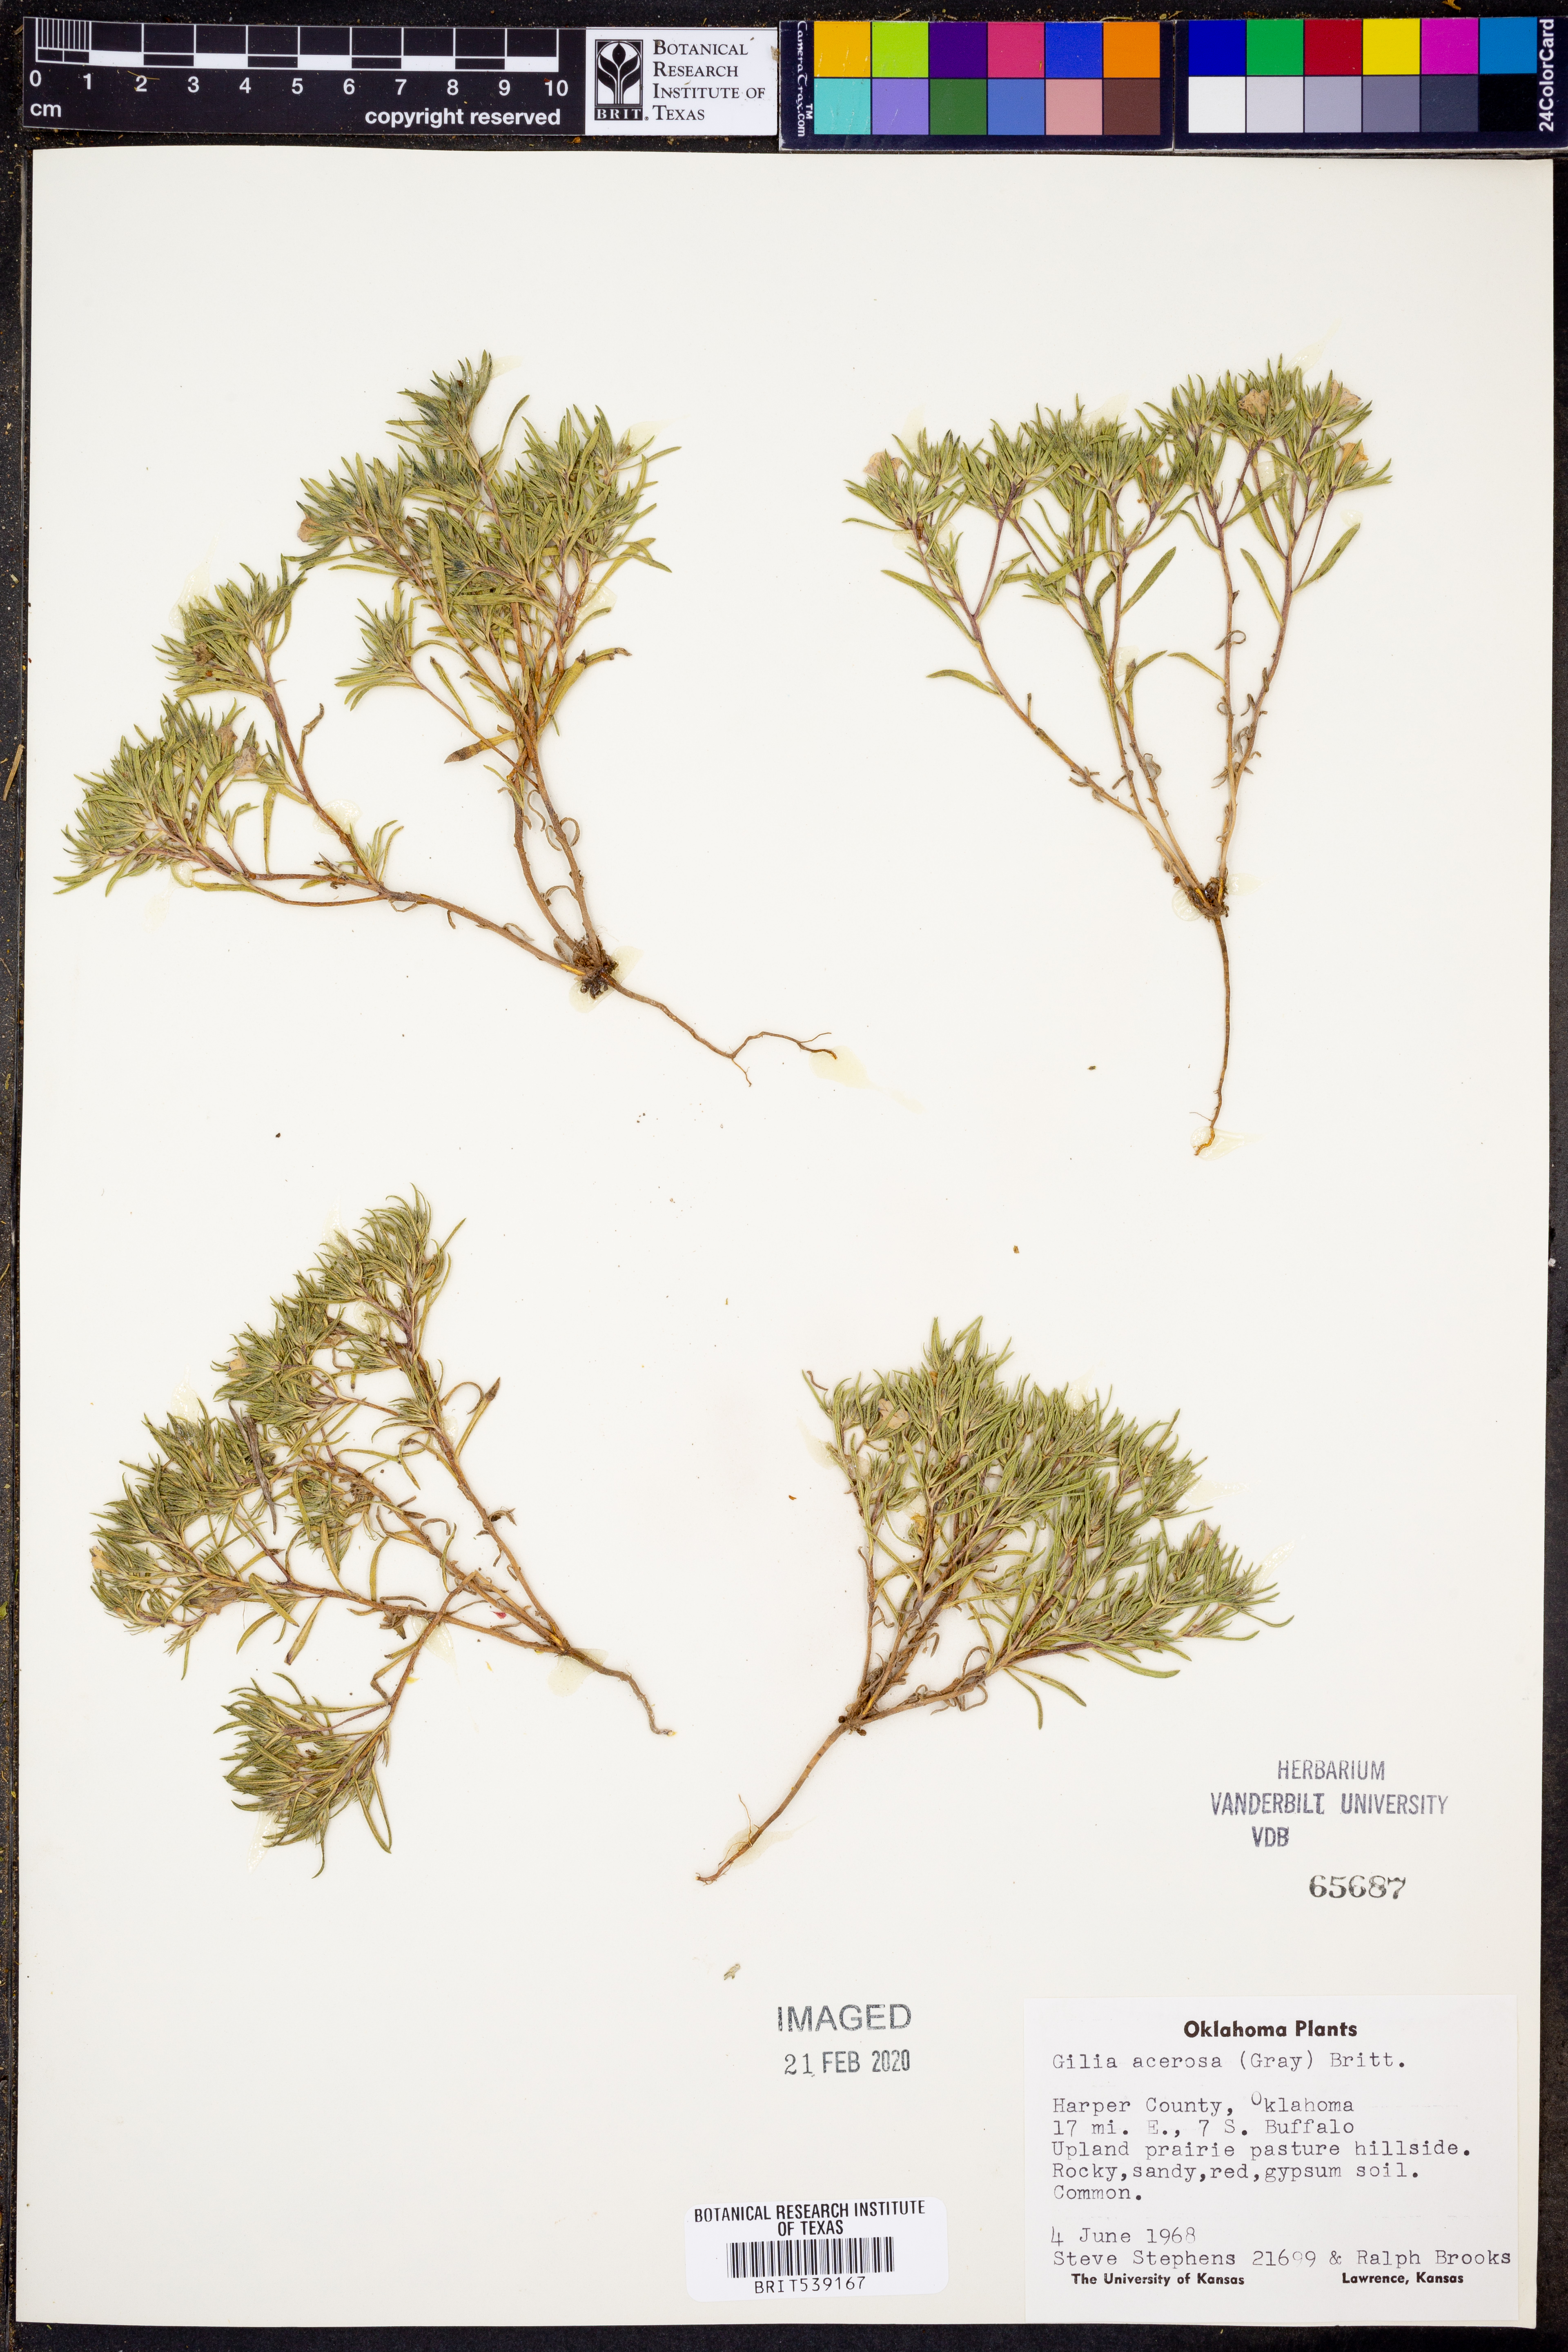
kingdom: Plantae
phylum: Tracheophyta
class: Magnoliopsida
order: Ericales
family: Polemoniaceae
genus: Giliastrum
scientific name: Giliastrum acerosum
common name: Bluebowls
